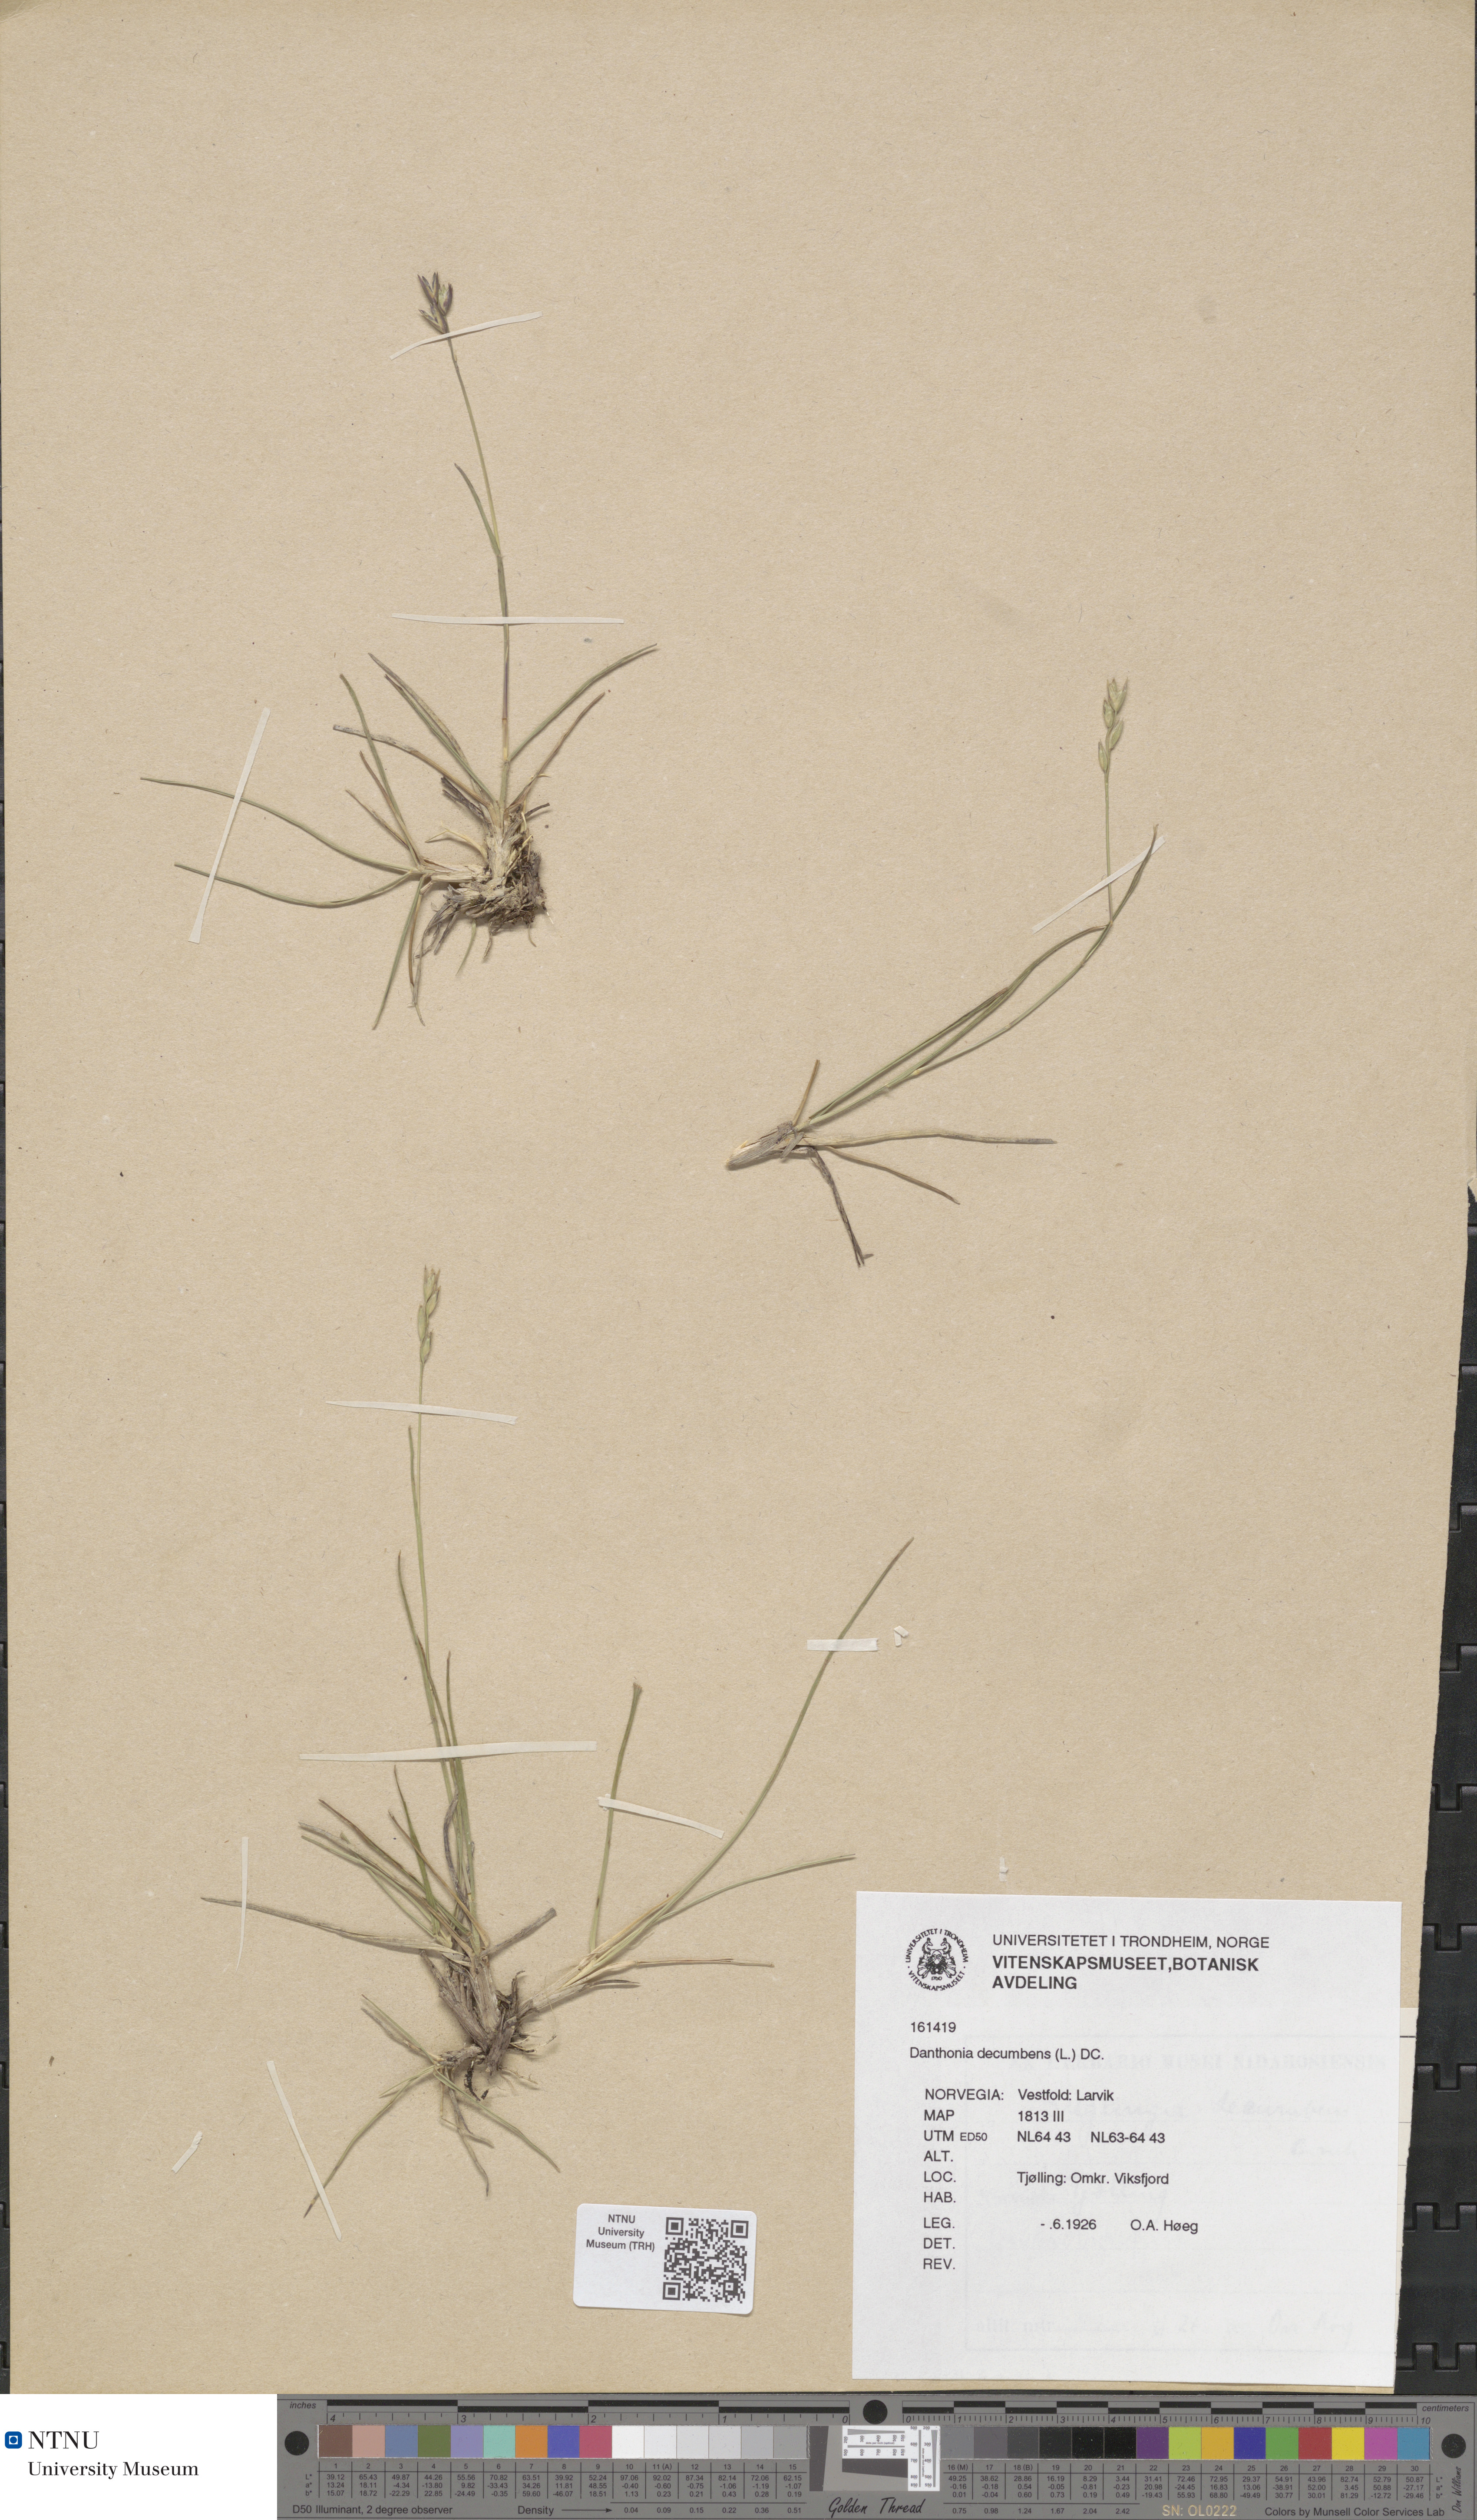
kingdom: Plantae
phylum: Tracheophyta
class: Liliopsida
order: Poales
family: Poaceae
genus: Danthonia
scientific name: Danthonia decumbens
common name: Common heathgrass
